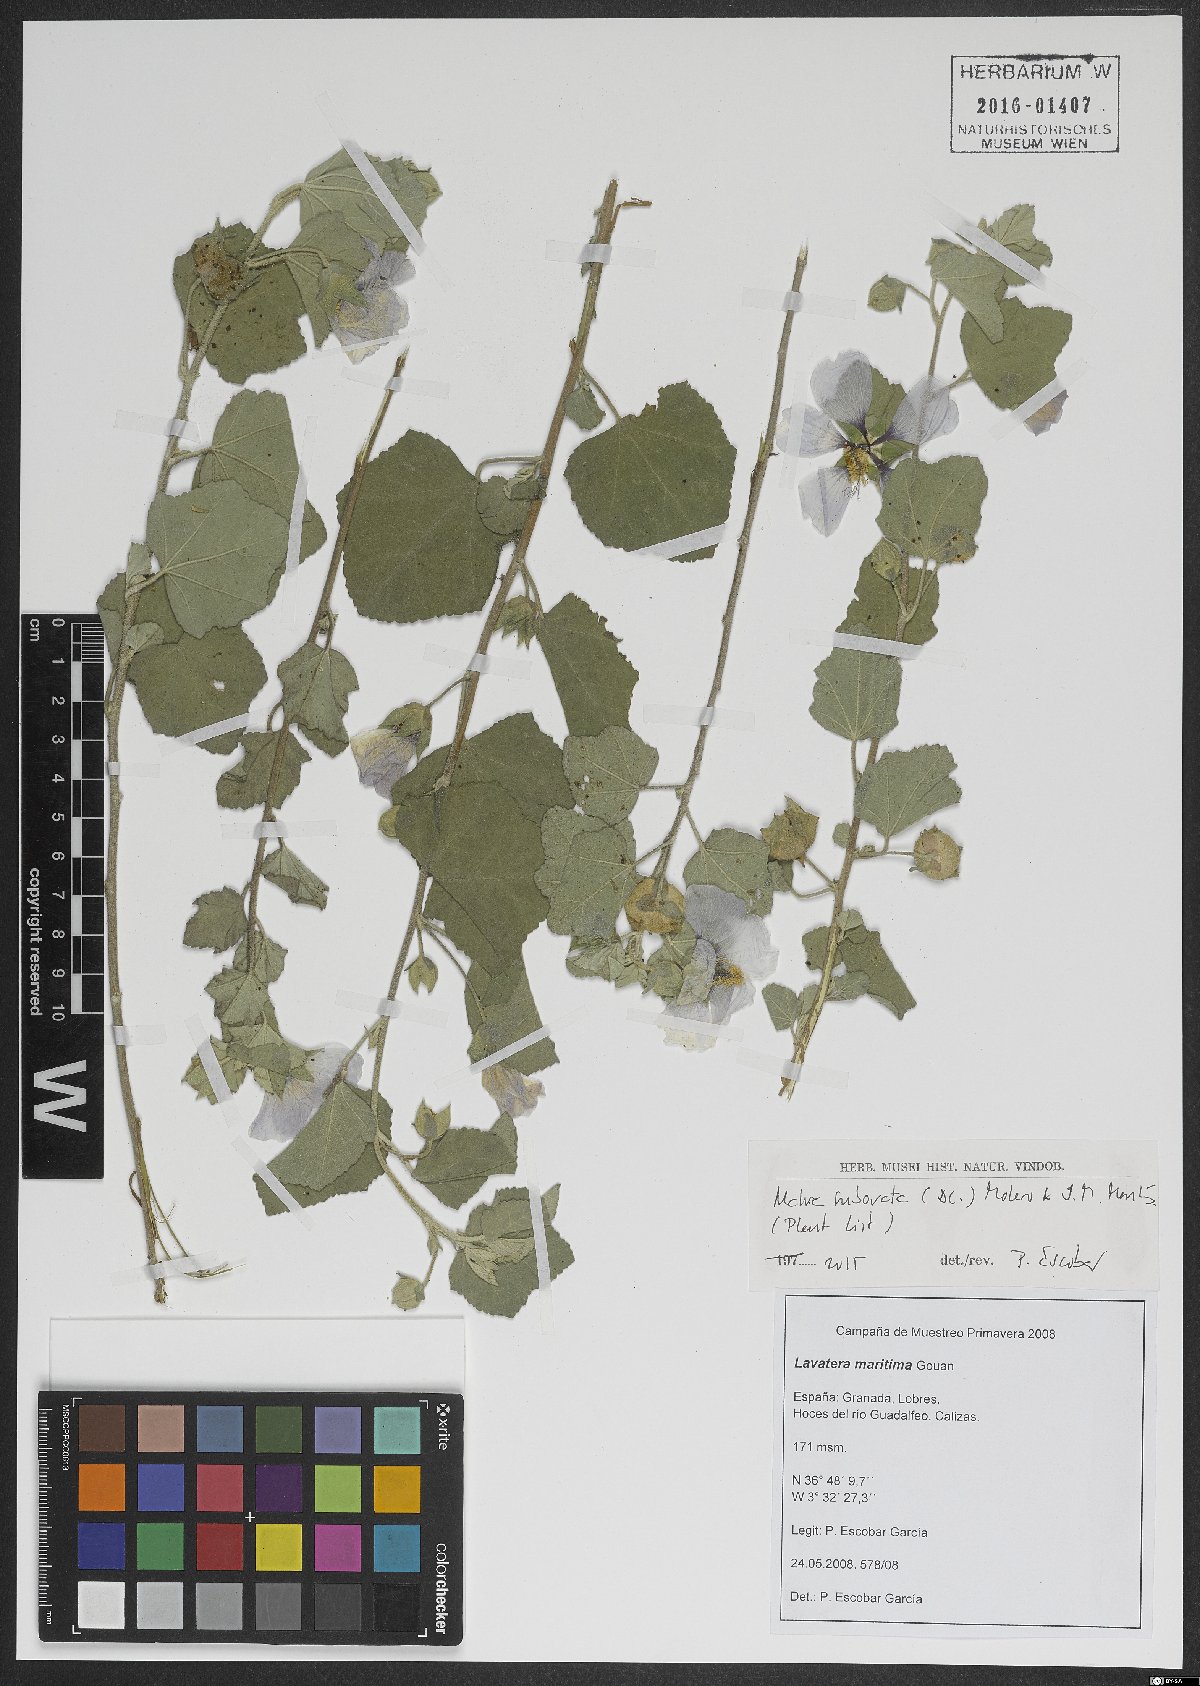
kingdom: Plantae
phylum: Tracheophyta
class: Magnoliopsida
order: Malvales
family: Malvaceae
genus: Malva
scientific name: Malva subovata
